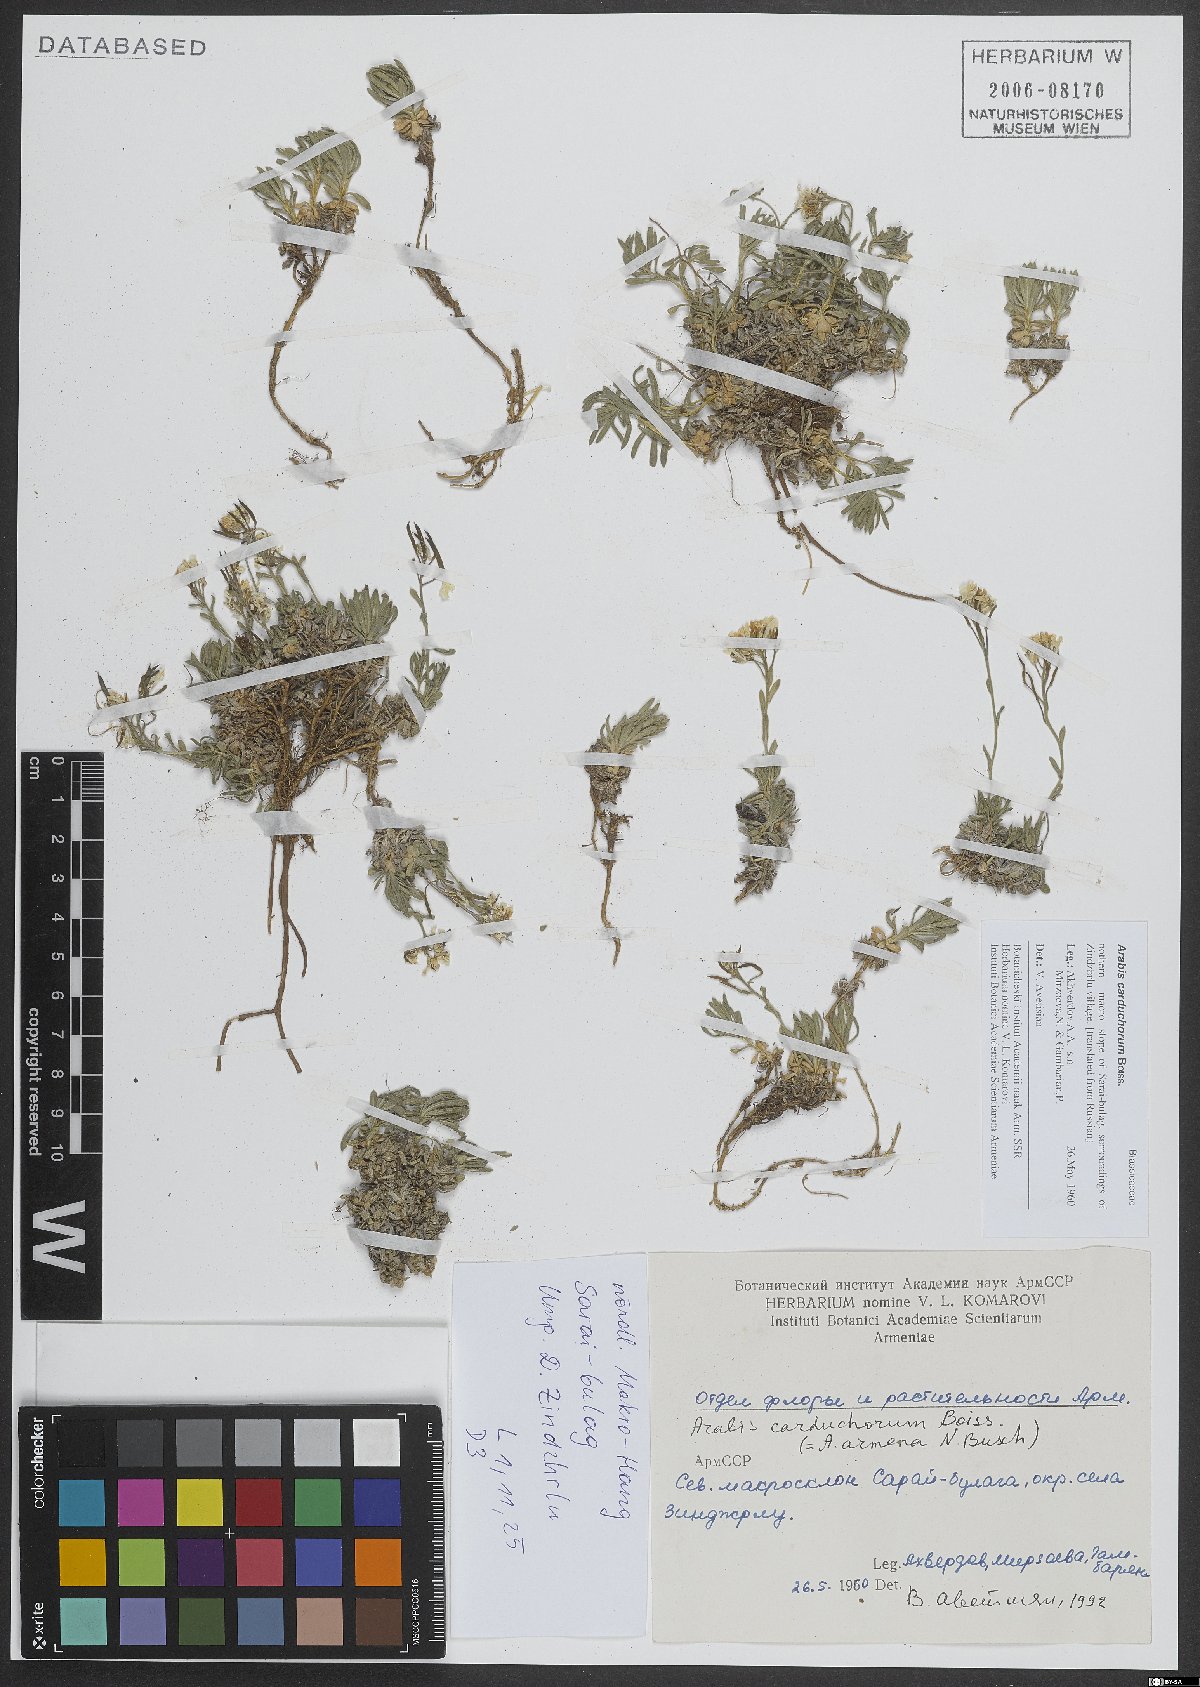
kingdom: Plantae
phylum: Tracheophyta
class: Magnoliopsida
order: Brassicales
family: Brassicaceae
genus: Arabis
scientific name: Arabis carduchorum
